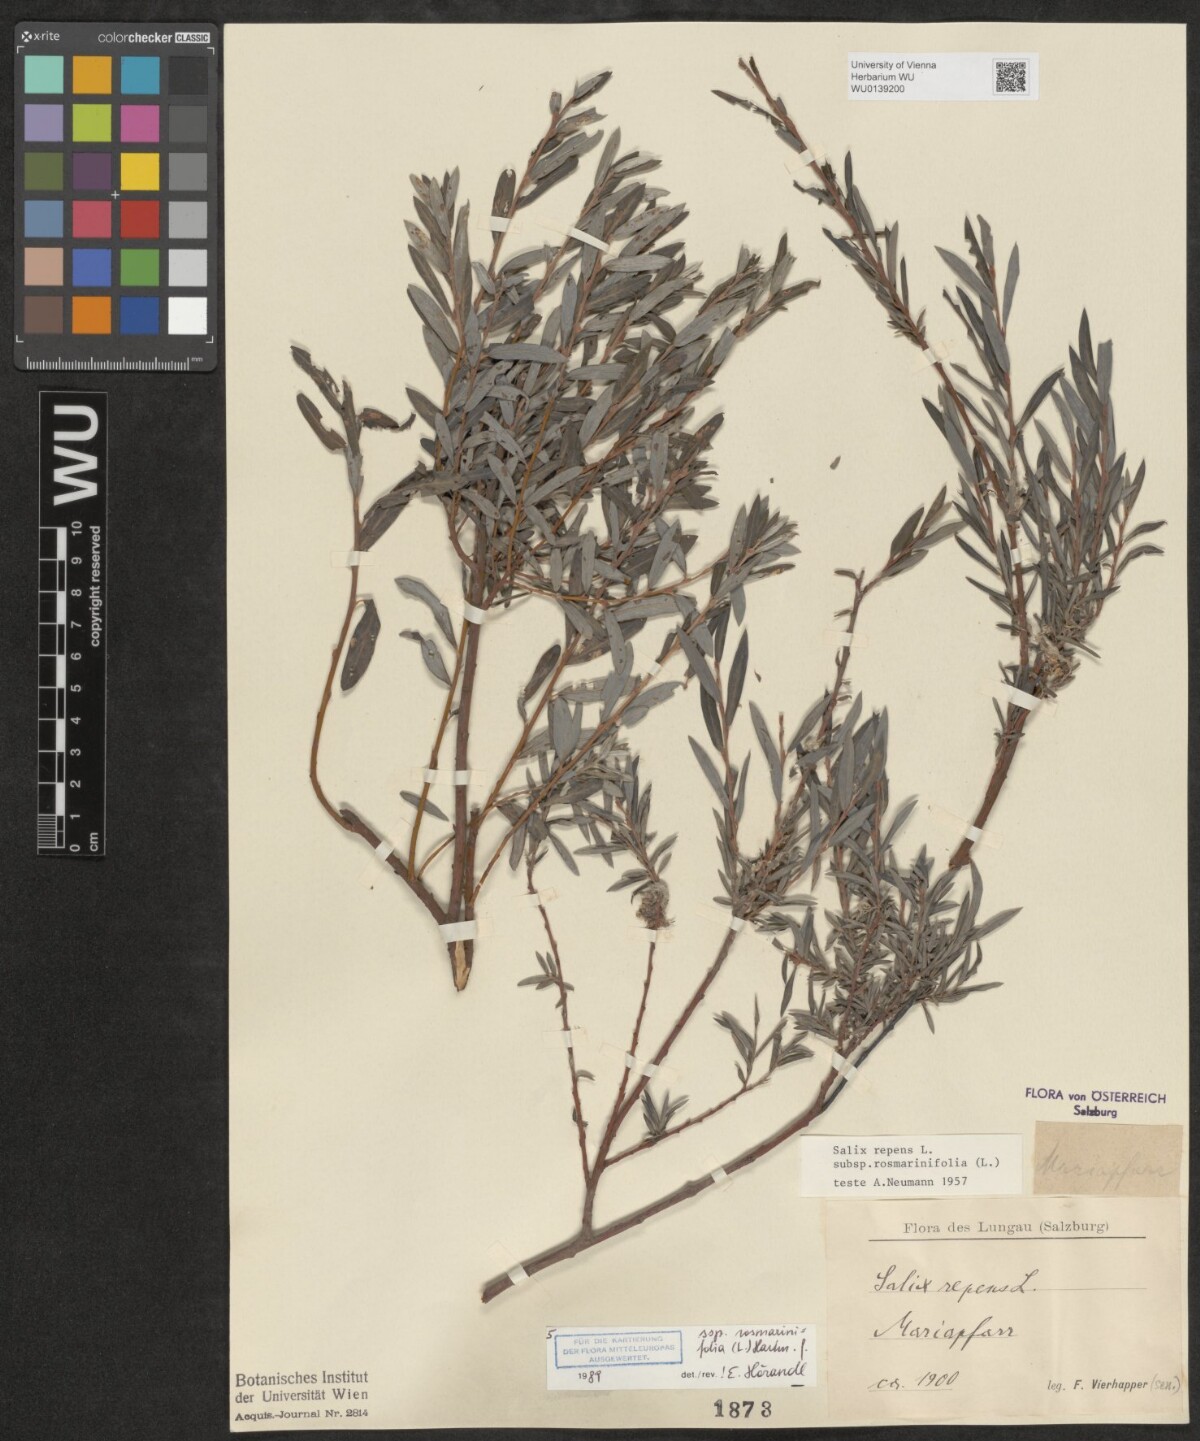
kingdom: Plantae
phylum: Tracheophyta
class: Magnoliopsida
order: Malpighiales
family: Salicaceae
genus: Salix
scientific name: Salix repens
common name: Creeping willow
